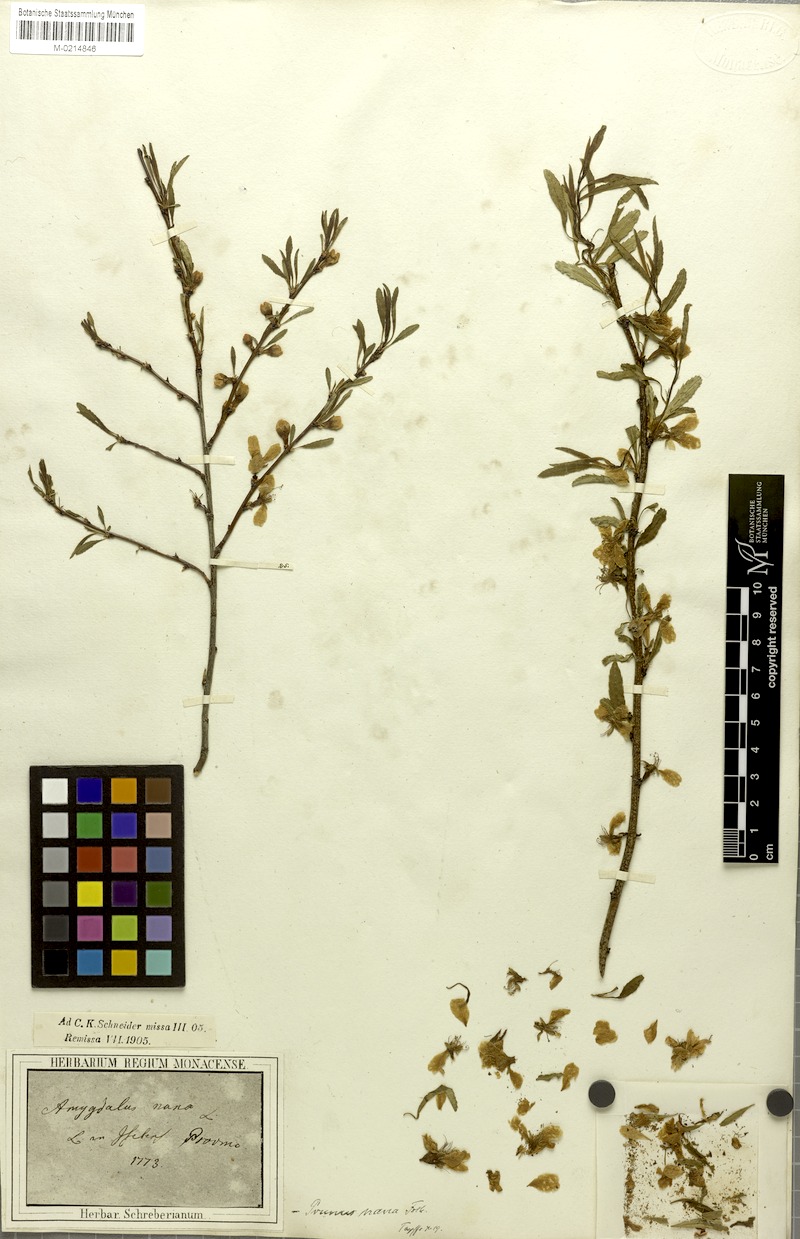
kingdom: Plantae
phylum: Tracheophyta
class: Magnoliopsida
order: Rosales
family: Rosaceae
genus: Prunus
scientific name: Prunus tenella
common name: Dwarf russian almond
